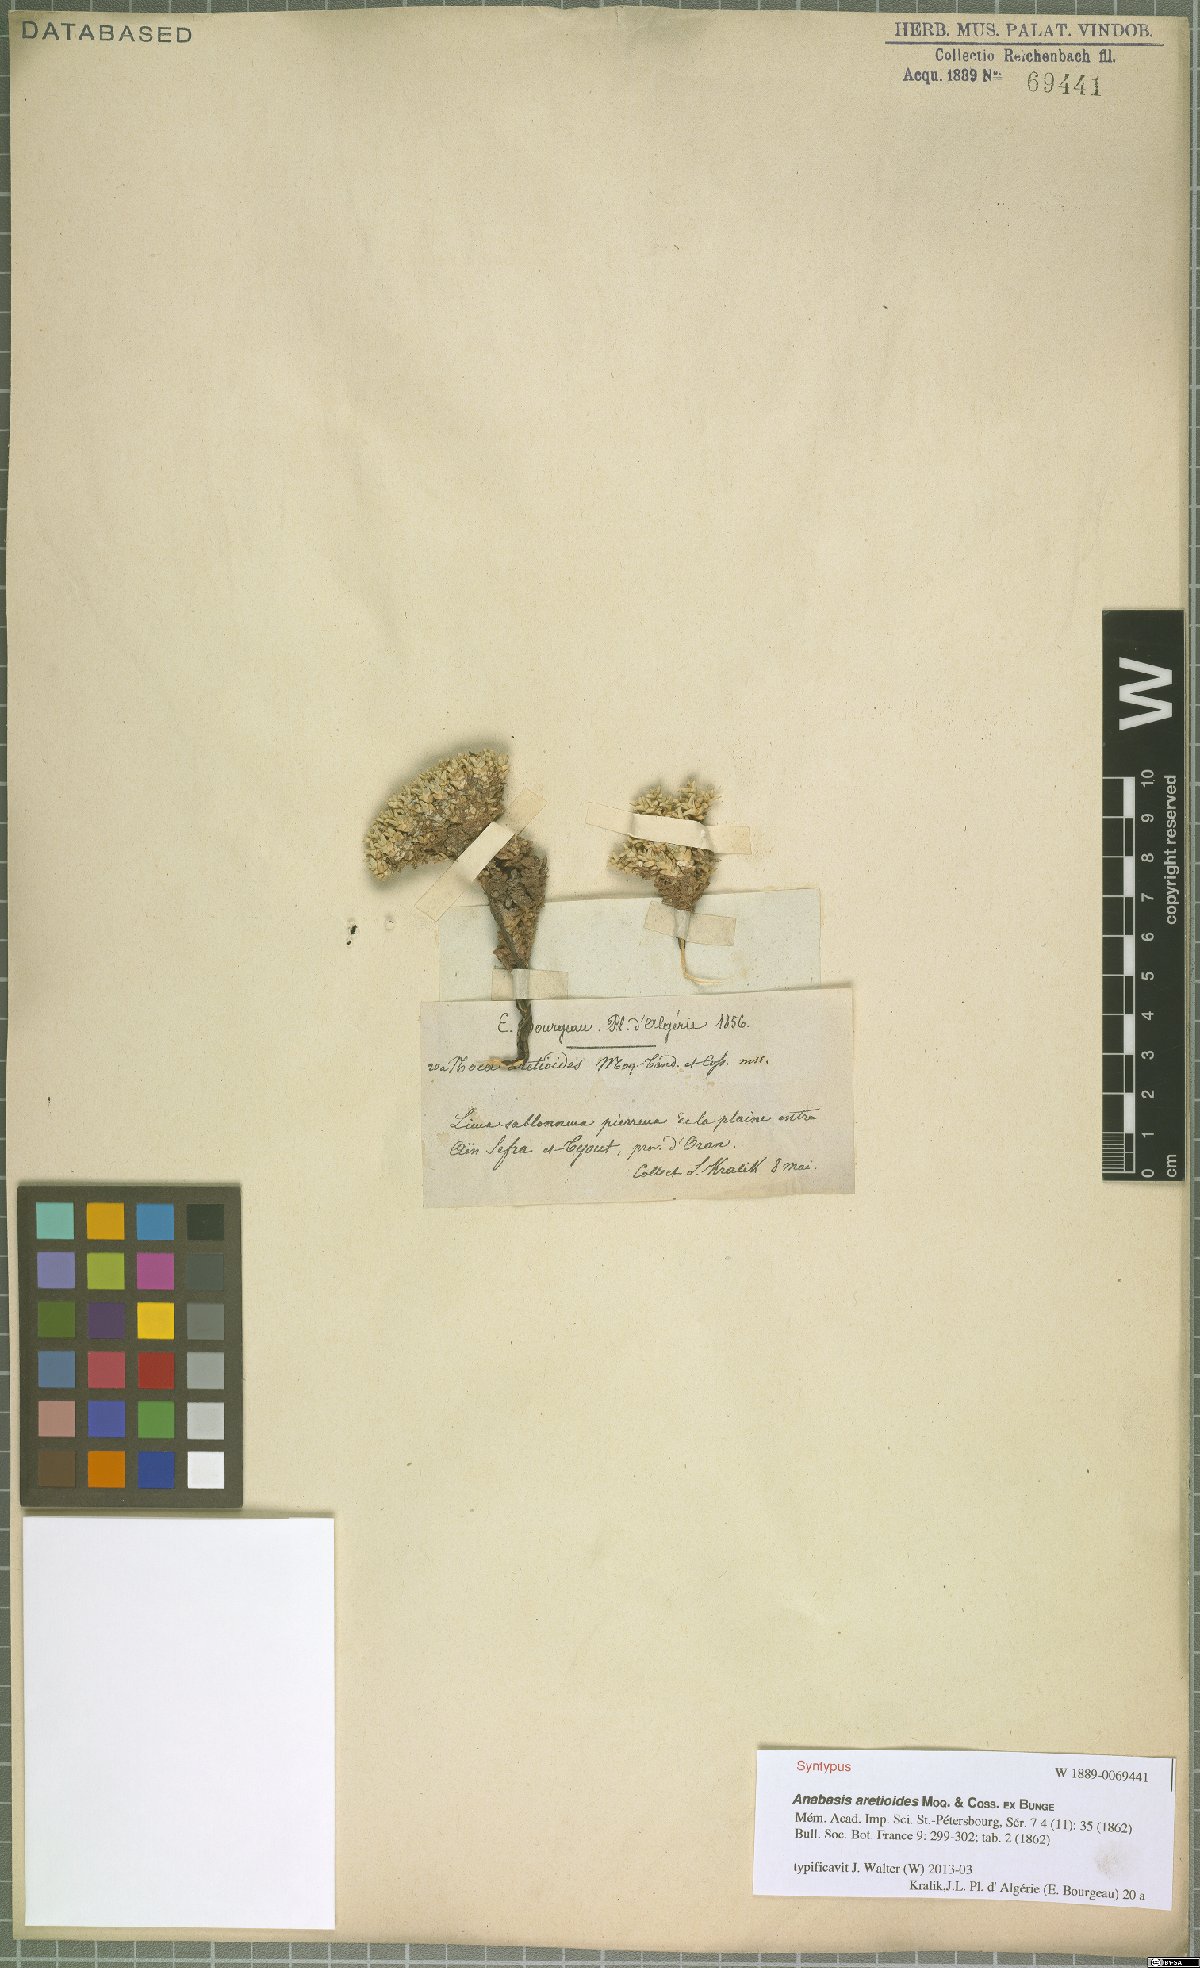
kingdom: Plantae
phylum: Tracheophyta
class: Magnoliopsida
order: Caryophyllales
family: Amaranthaceae
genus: Anabasis
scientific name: Anabasis aretioides
